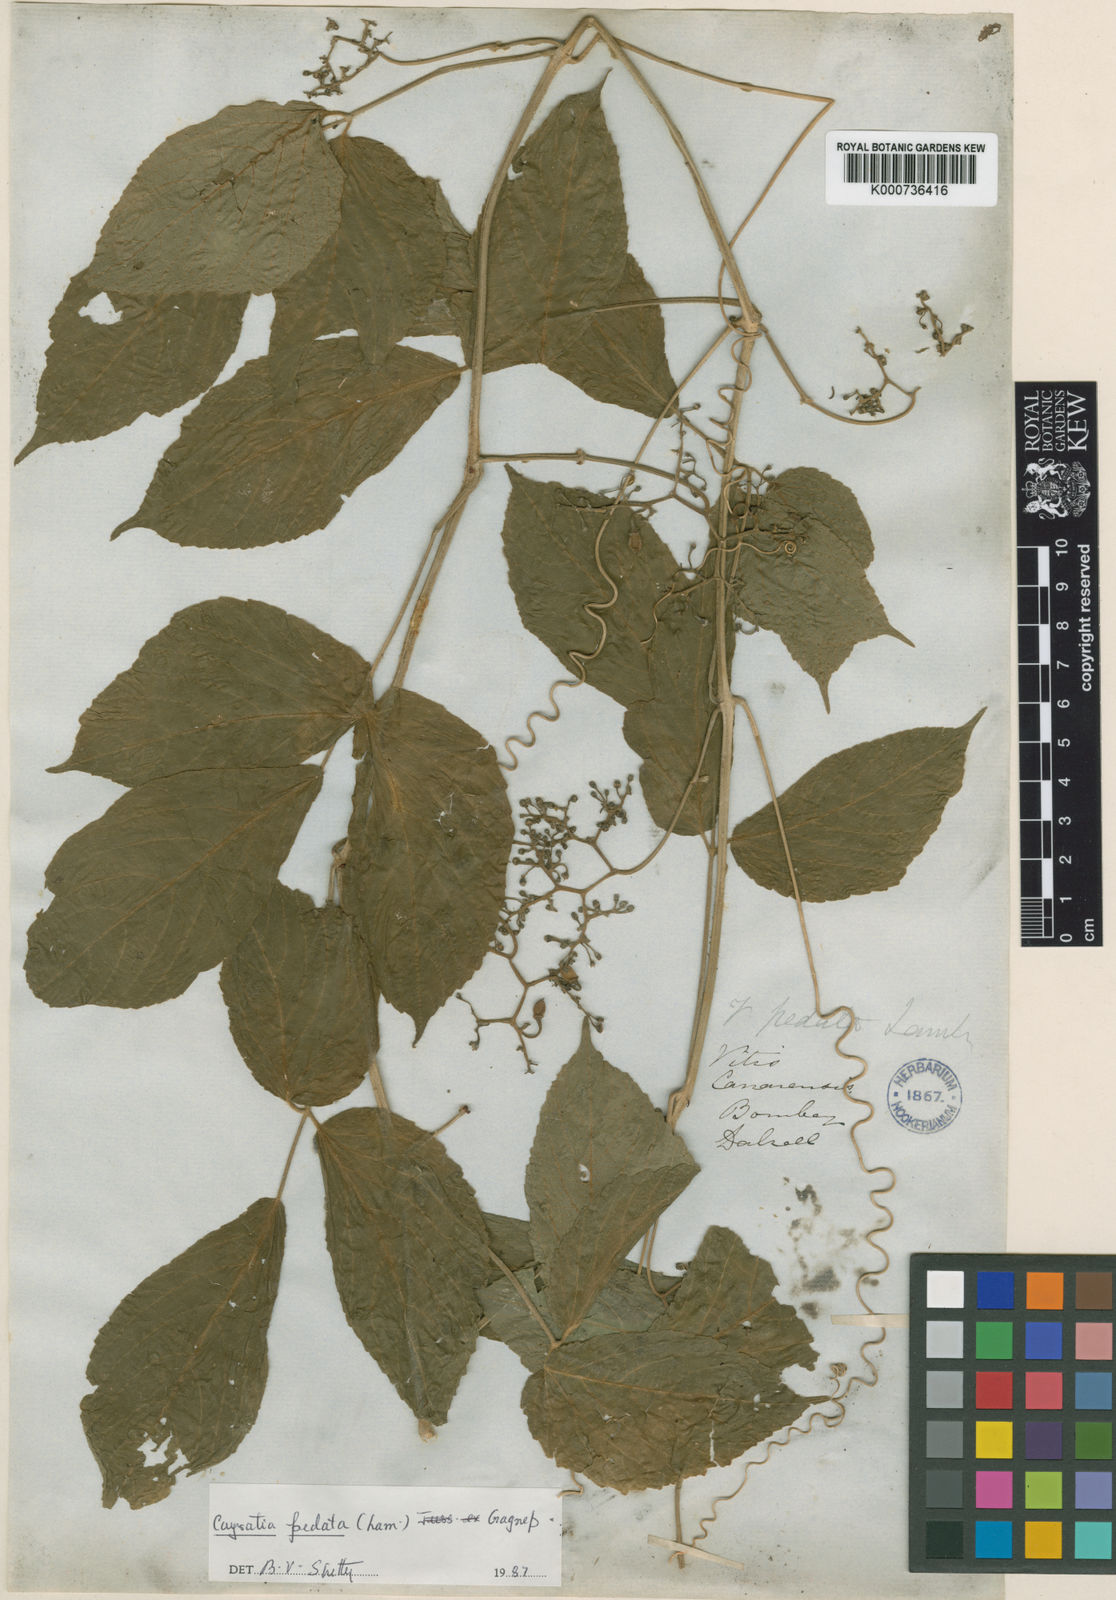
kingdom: Plantae
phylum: Tracheophyta
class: Magnoliopsida
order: Vitales
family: Vitaceae
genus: Cayratia
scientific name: Cayratia pedata
